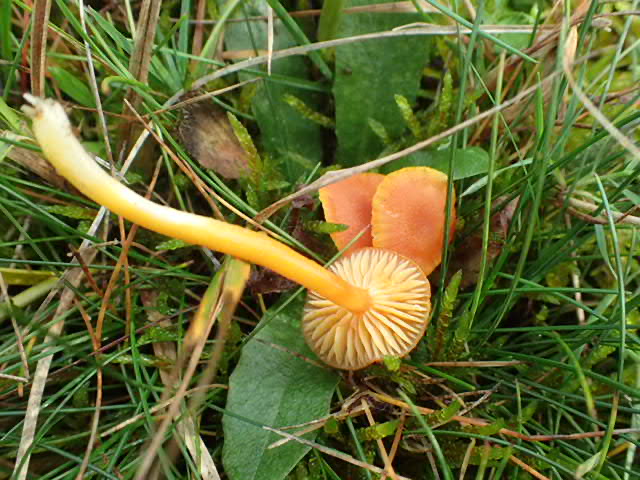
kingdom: Fungi
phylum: Basidiomycota
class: Agaricomycetes
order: Agaricales
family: Hygrophoraceae
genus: Hygrocybe
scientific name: Hygrocybe miniata
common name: mønje-vokshat
